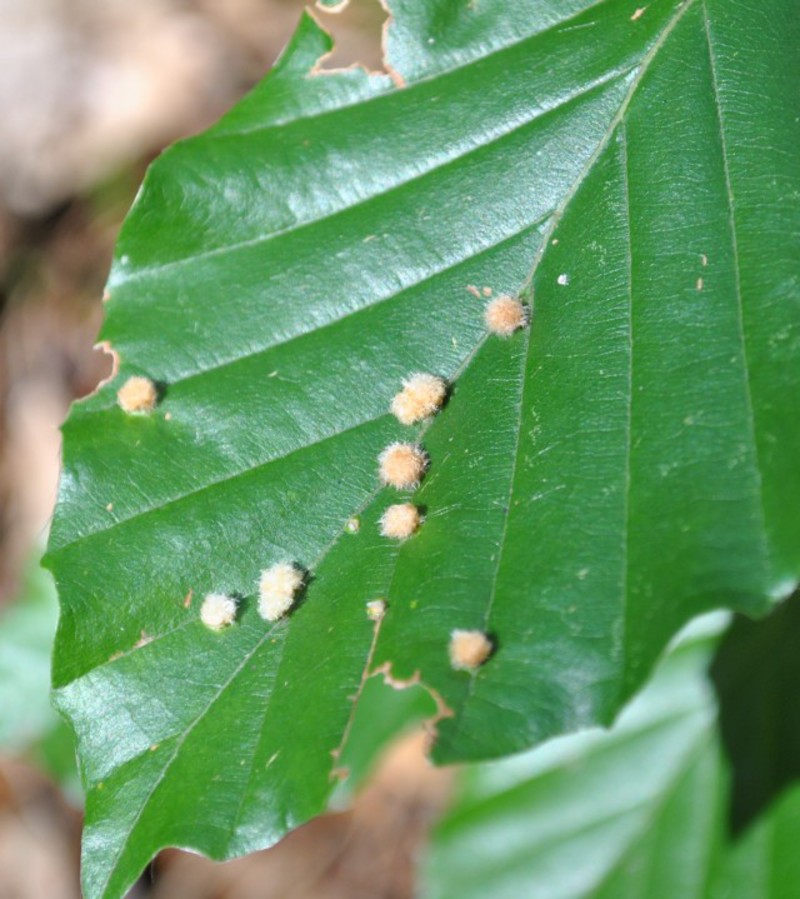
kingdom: Animalia
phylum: Arthropoda
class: Insecta
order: Diptera
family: Cecidomyiidae
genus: Hartigiola
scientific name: Hartigiola annulipes
